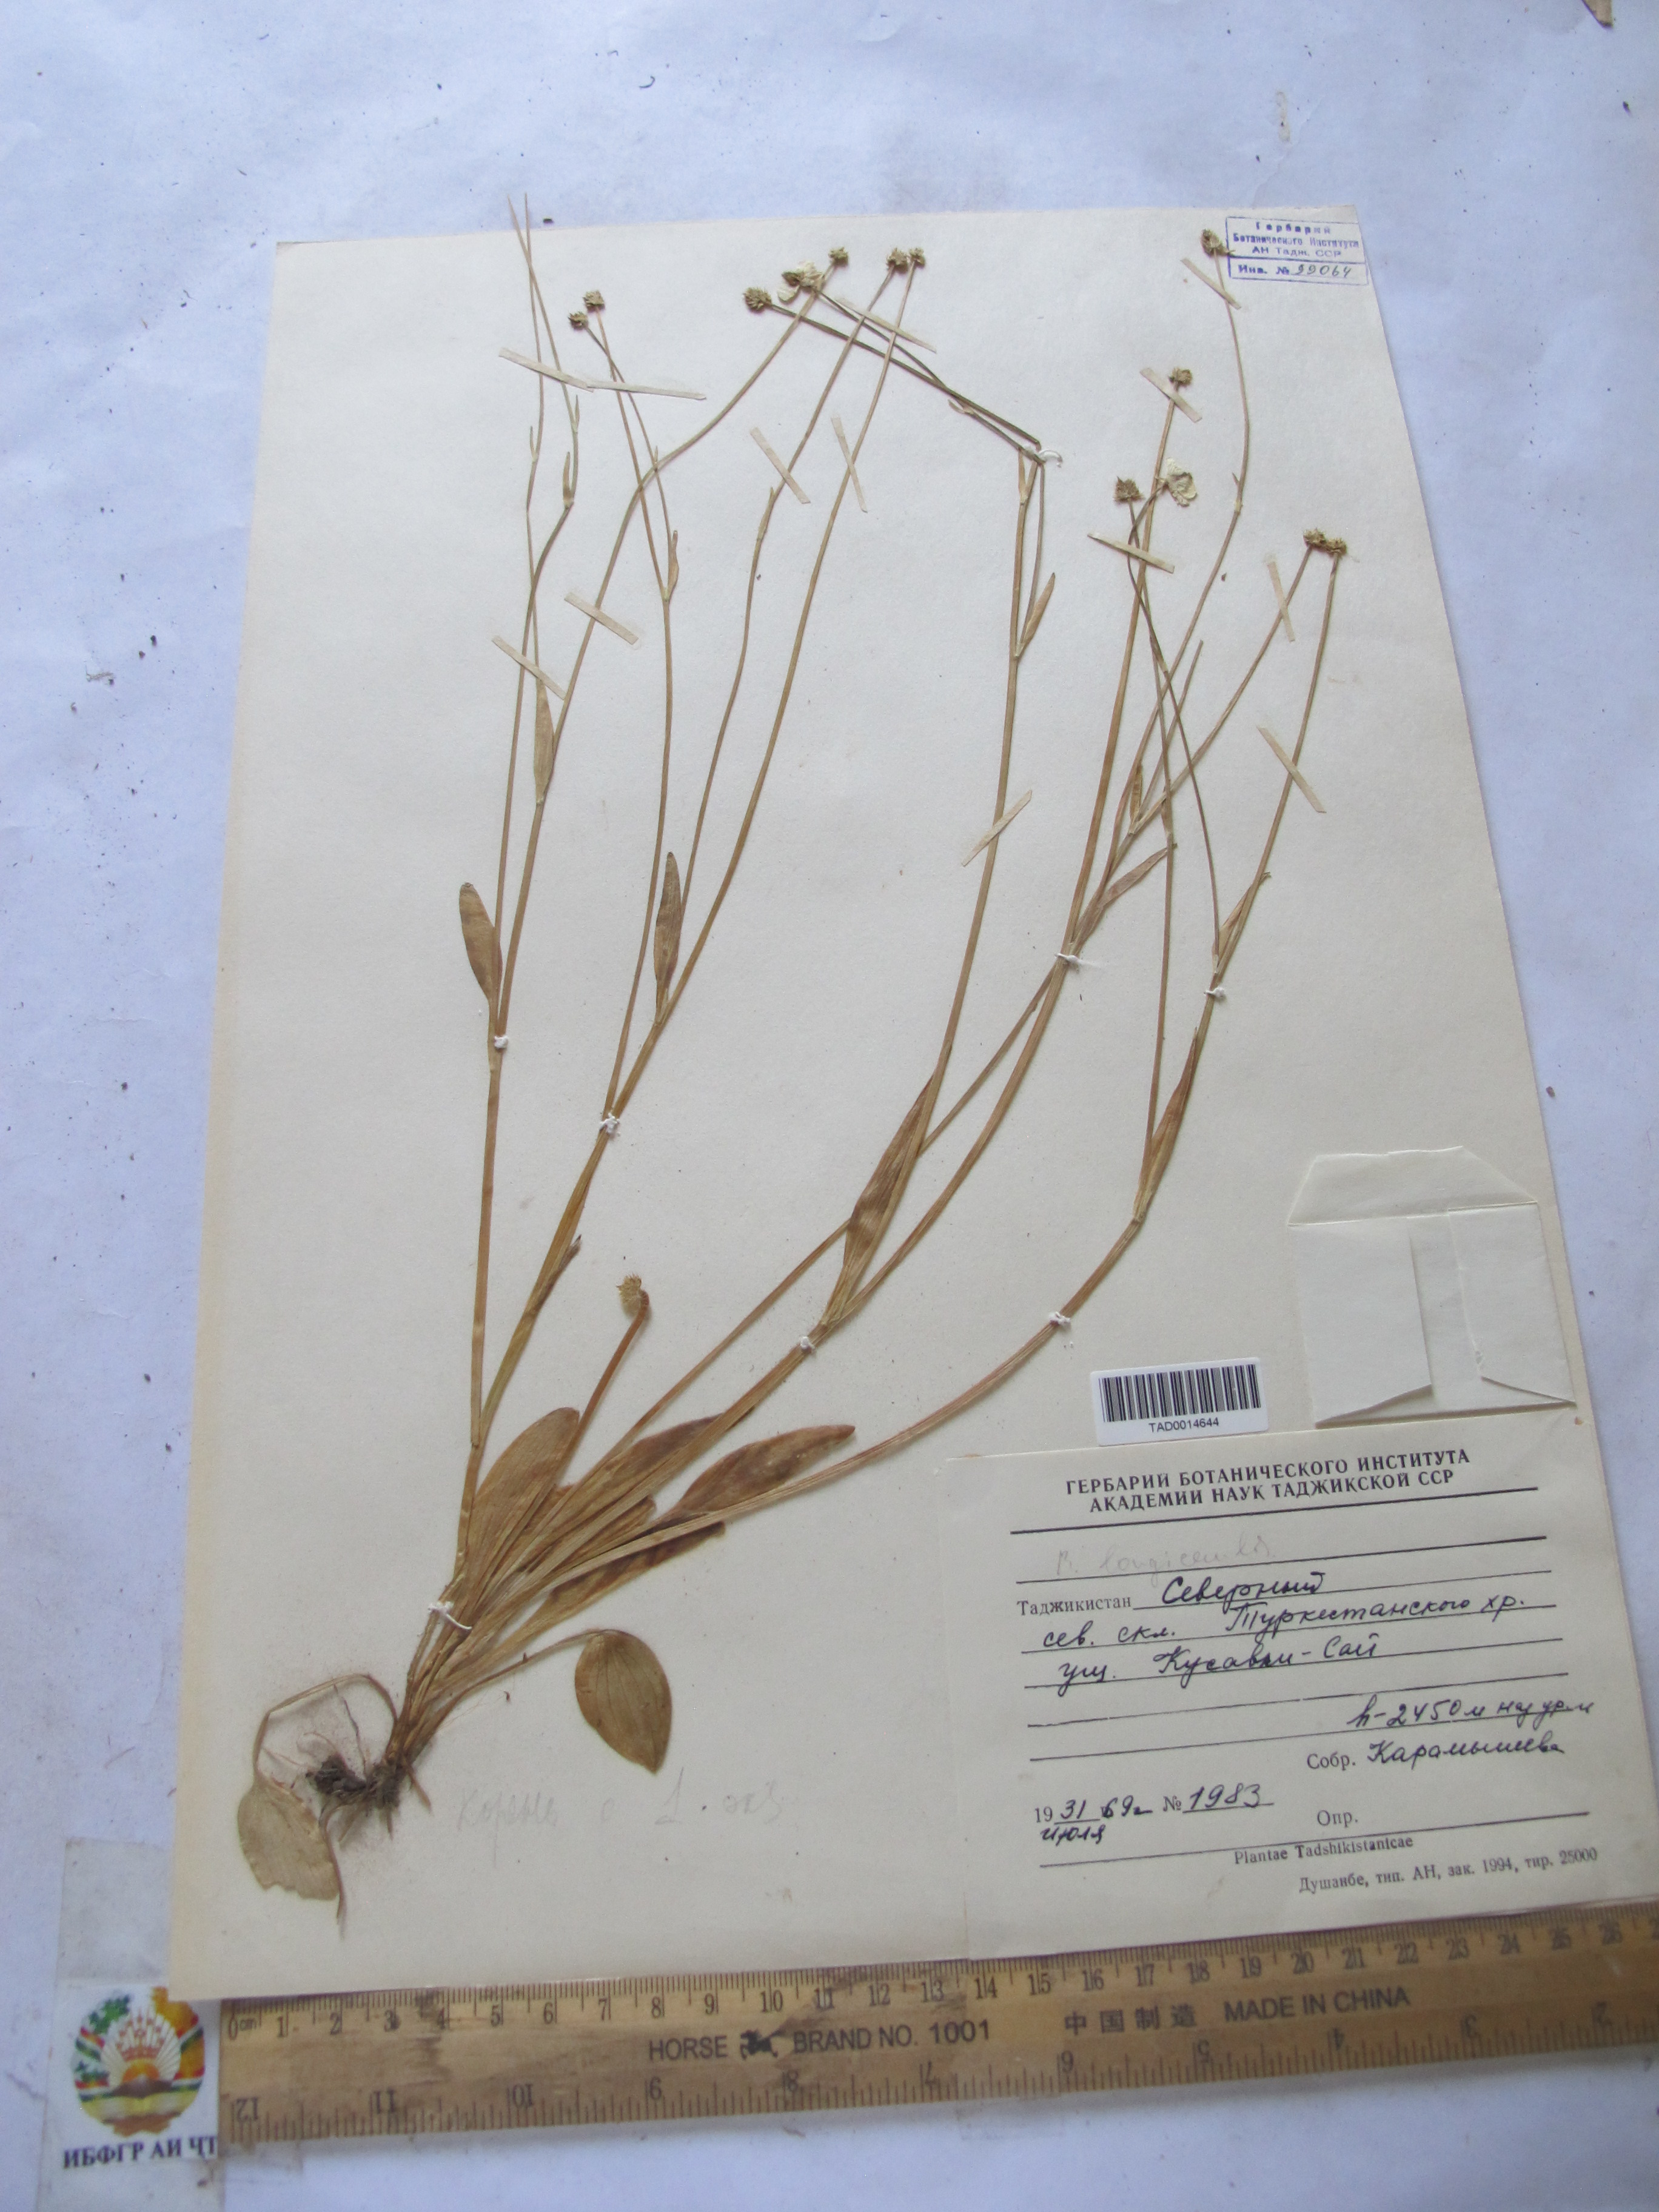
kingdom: Plantae
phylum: Tracheophyta
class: Magnoliopsida
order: Ranunculales
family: Ranunculaceae
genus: Ranunculus
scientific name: Ranunculus longicaulis
